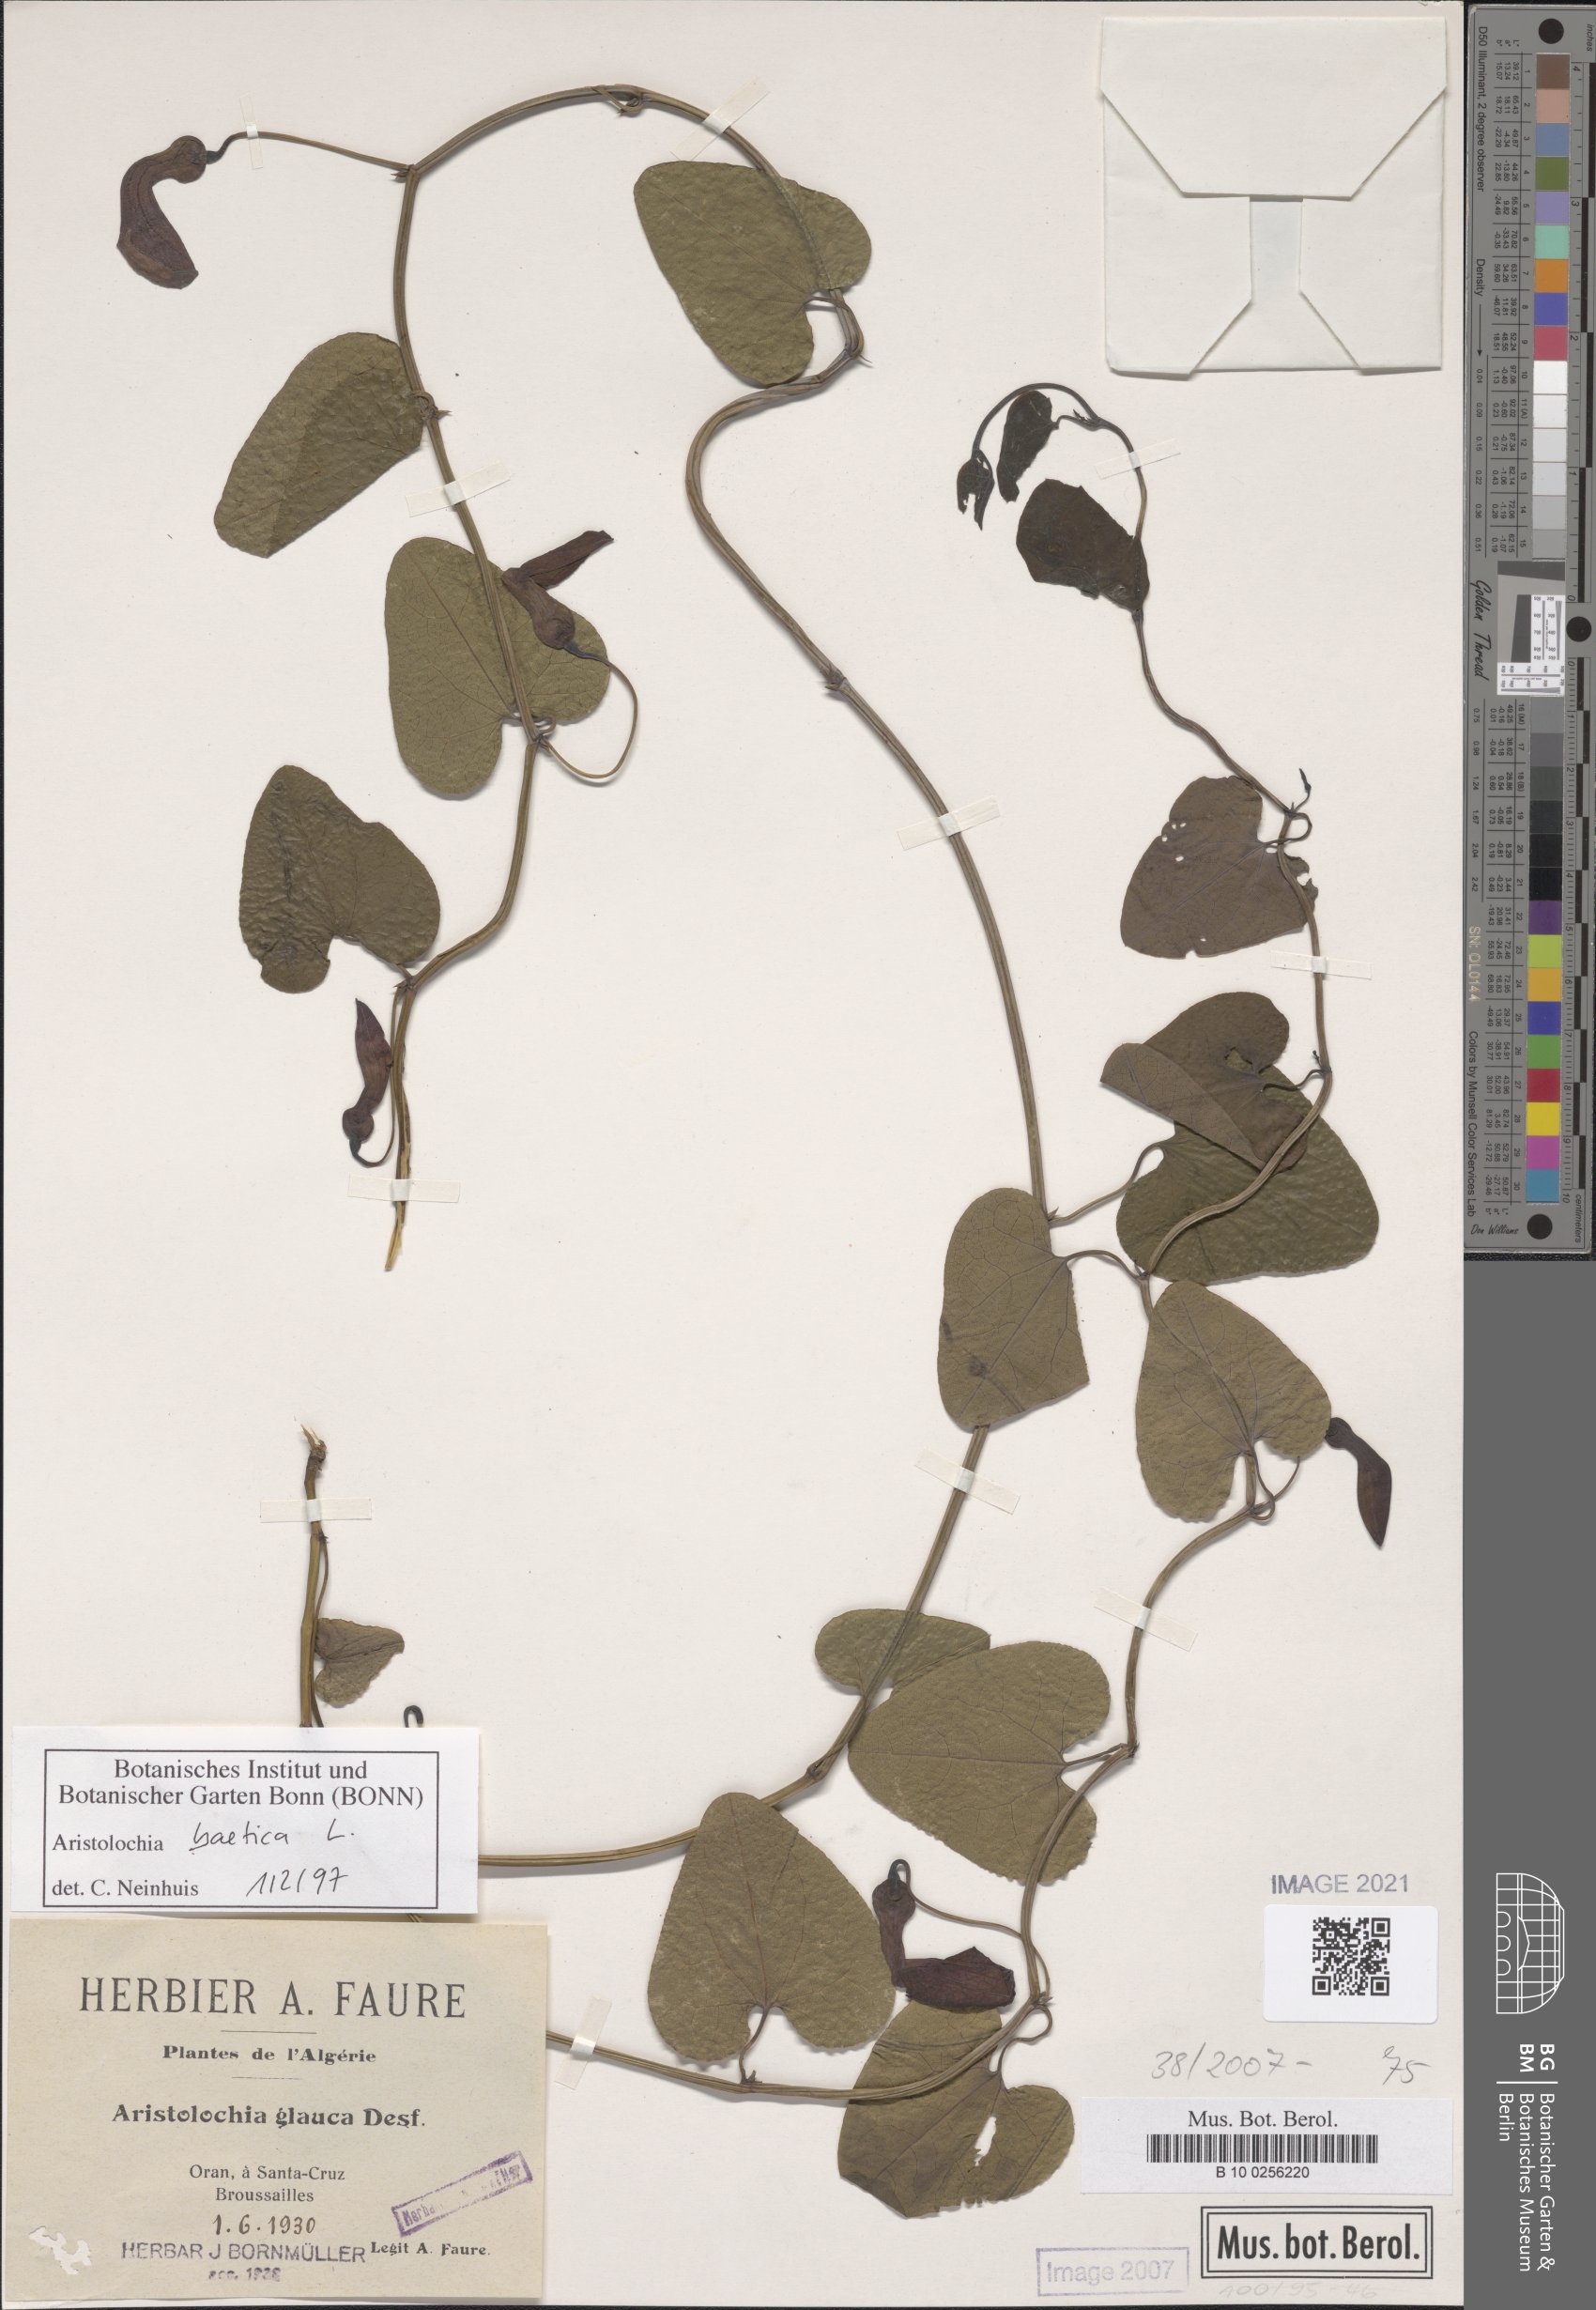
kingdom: Plantae
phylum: Tracheophyta
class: Magnoliopsida
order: Piperales
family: Aristolochiaceae
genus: Aristolochia
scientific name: Aristolochia baetica
